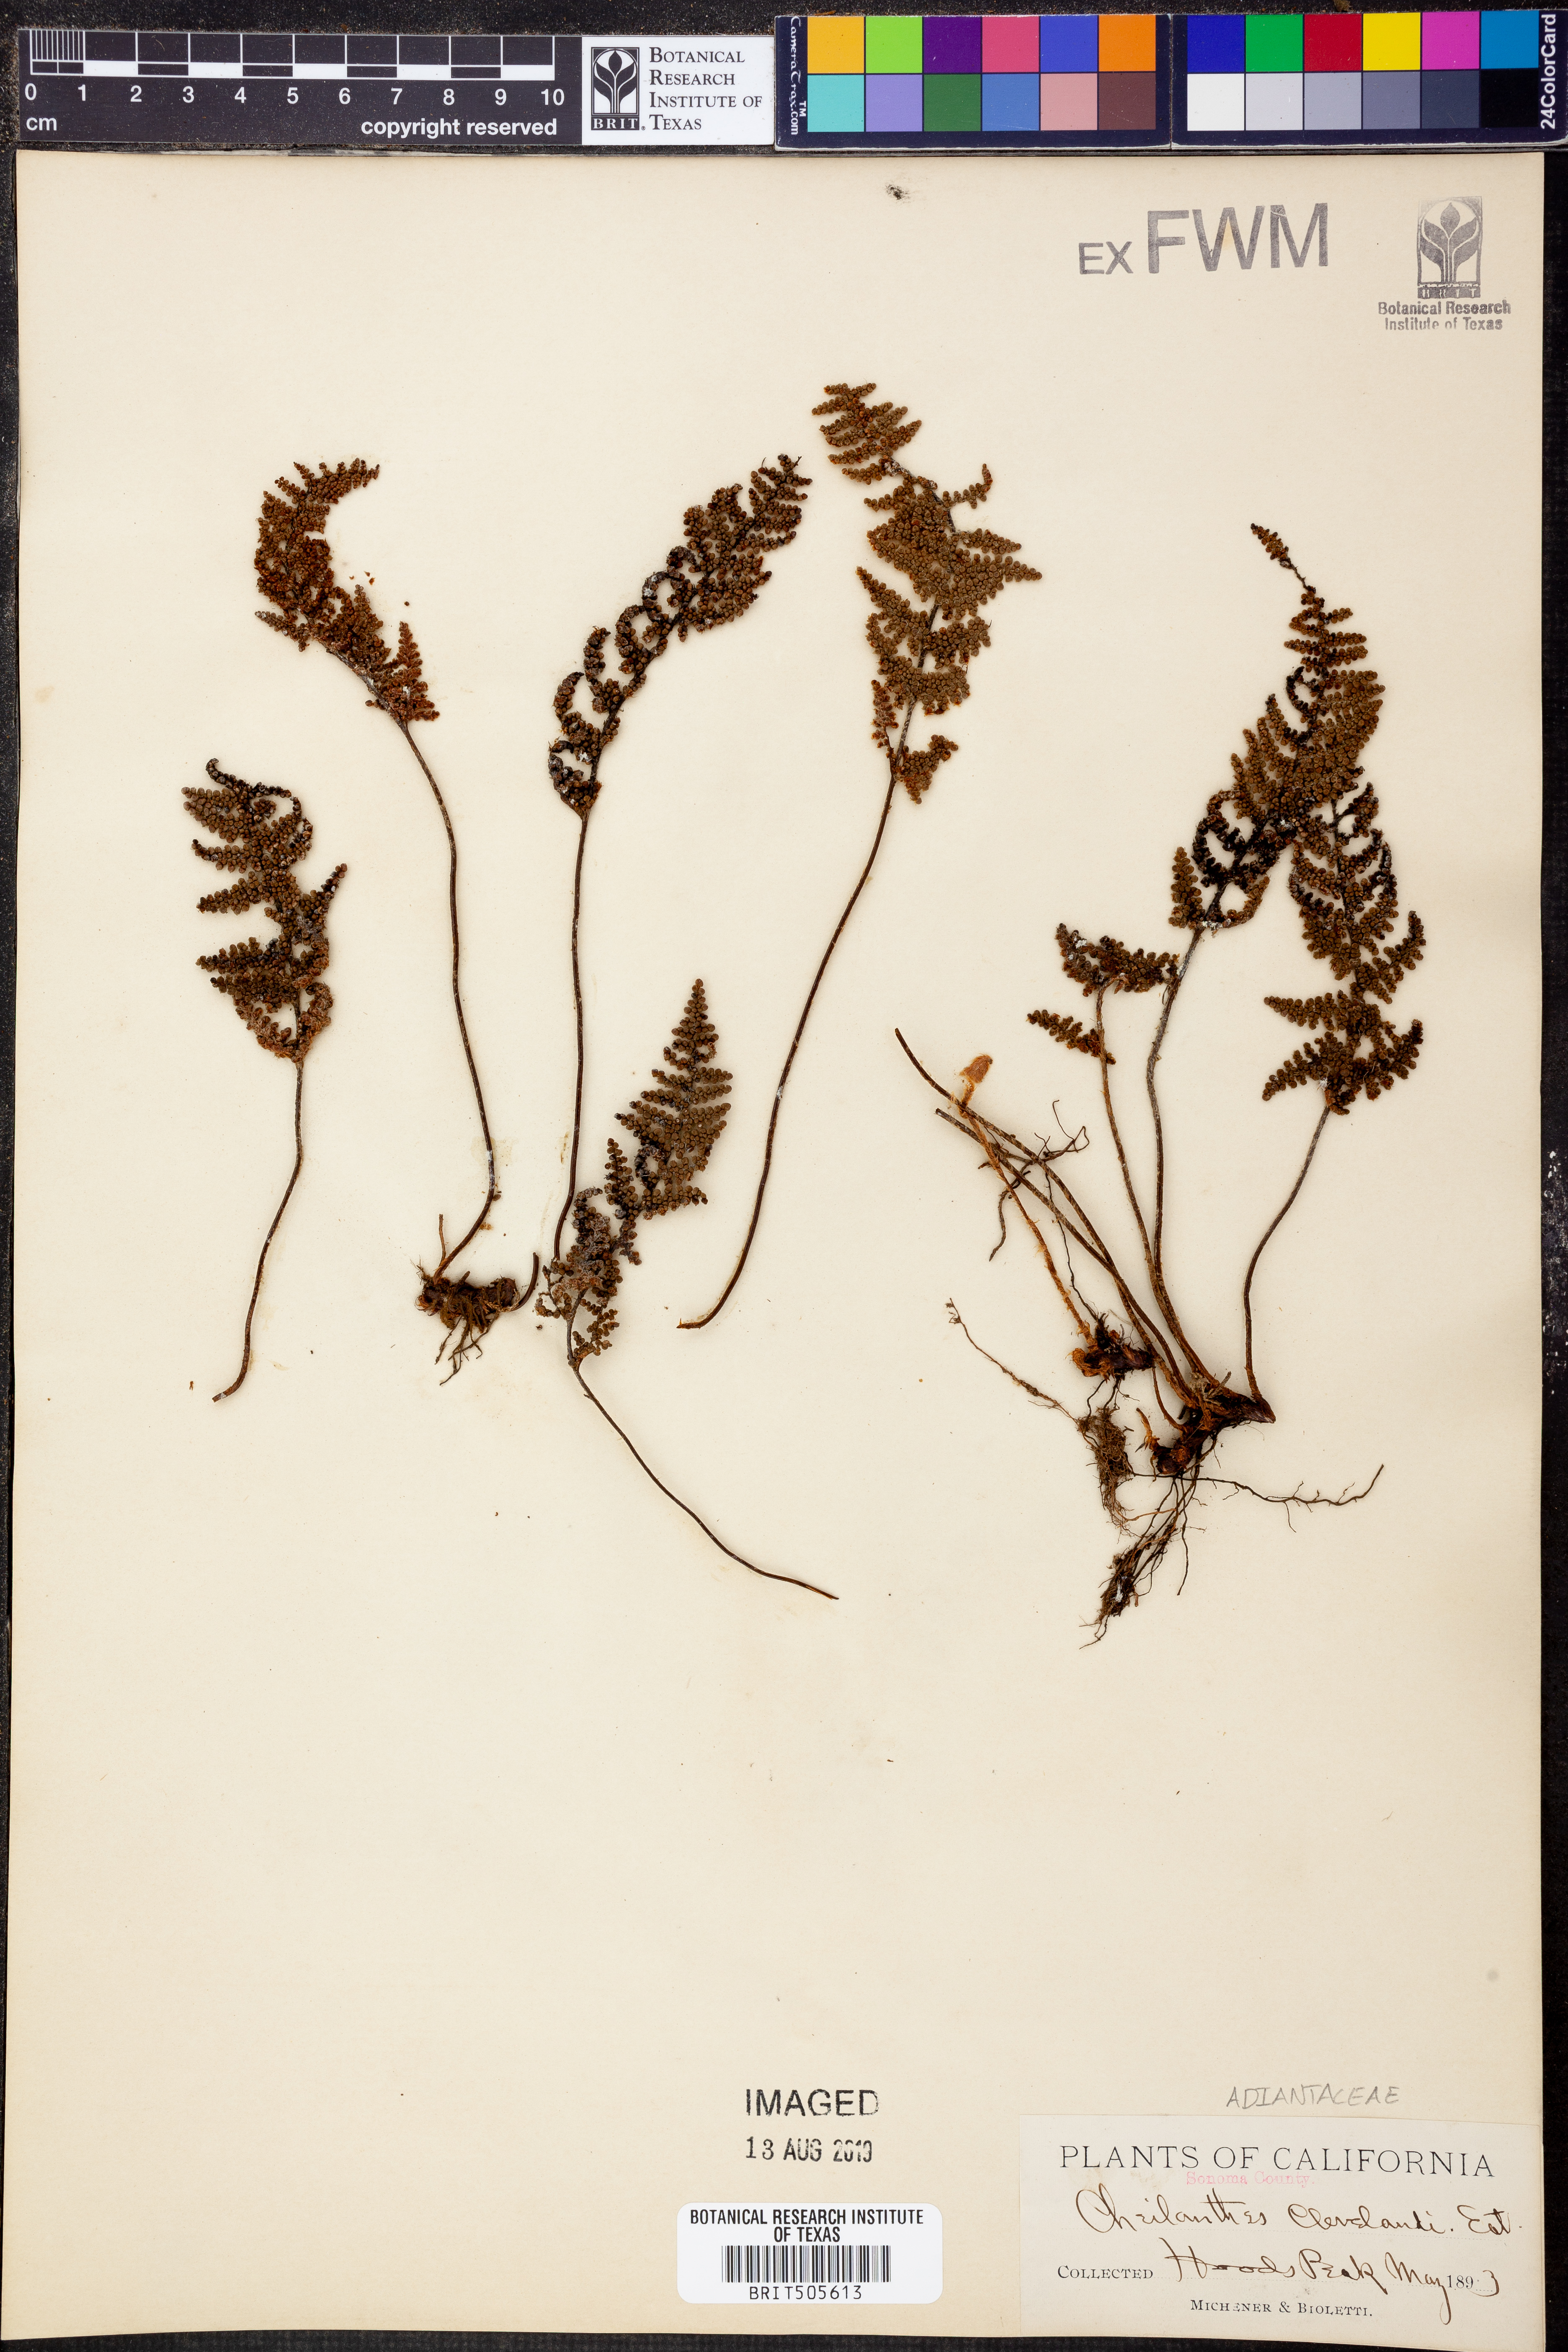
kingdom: Plantae
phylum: Tracheophyta
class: Polypodiopsida
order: Polypodiales
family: Pteridaceae
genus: Myriopteris
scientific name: Myriopteris clevelandii
